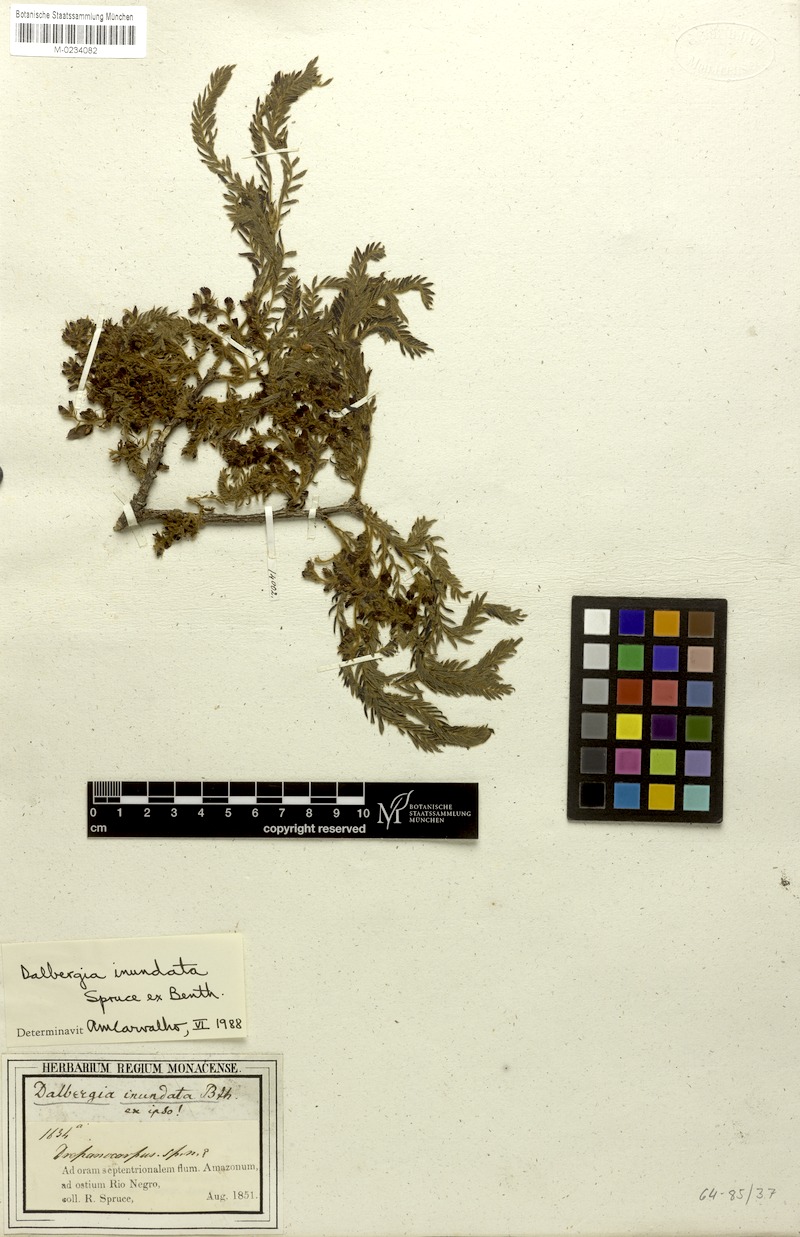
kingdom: Plantae
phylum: Tracheophyta
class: Magnoliopsida
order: Fabales
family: Fabaceae
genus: Dalbergia
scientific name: Dalbergia inundata
